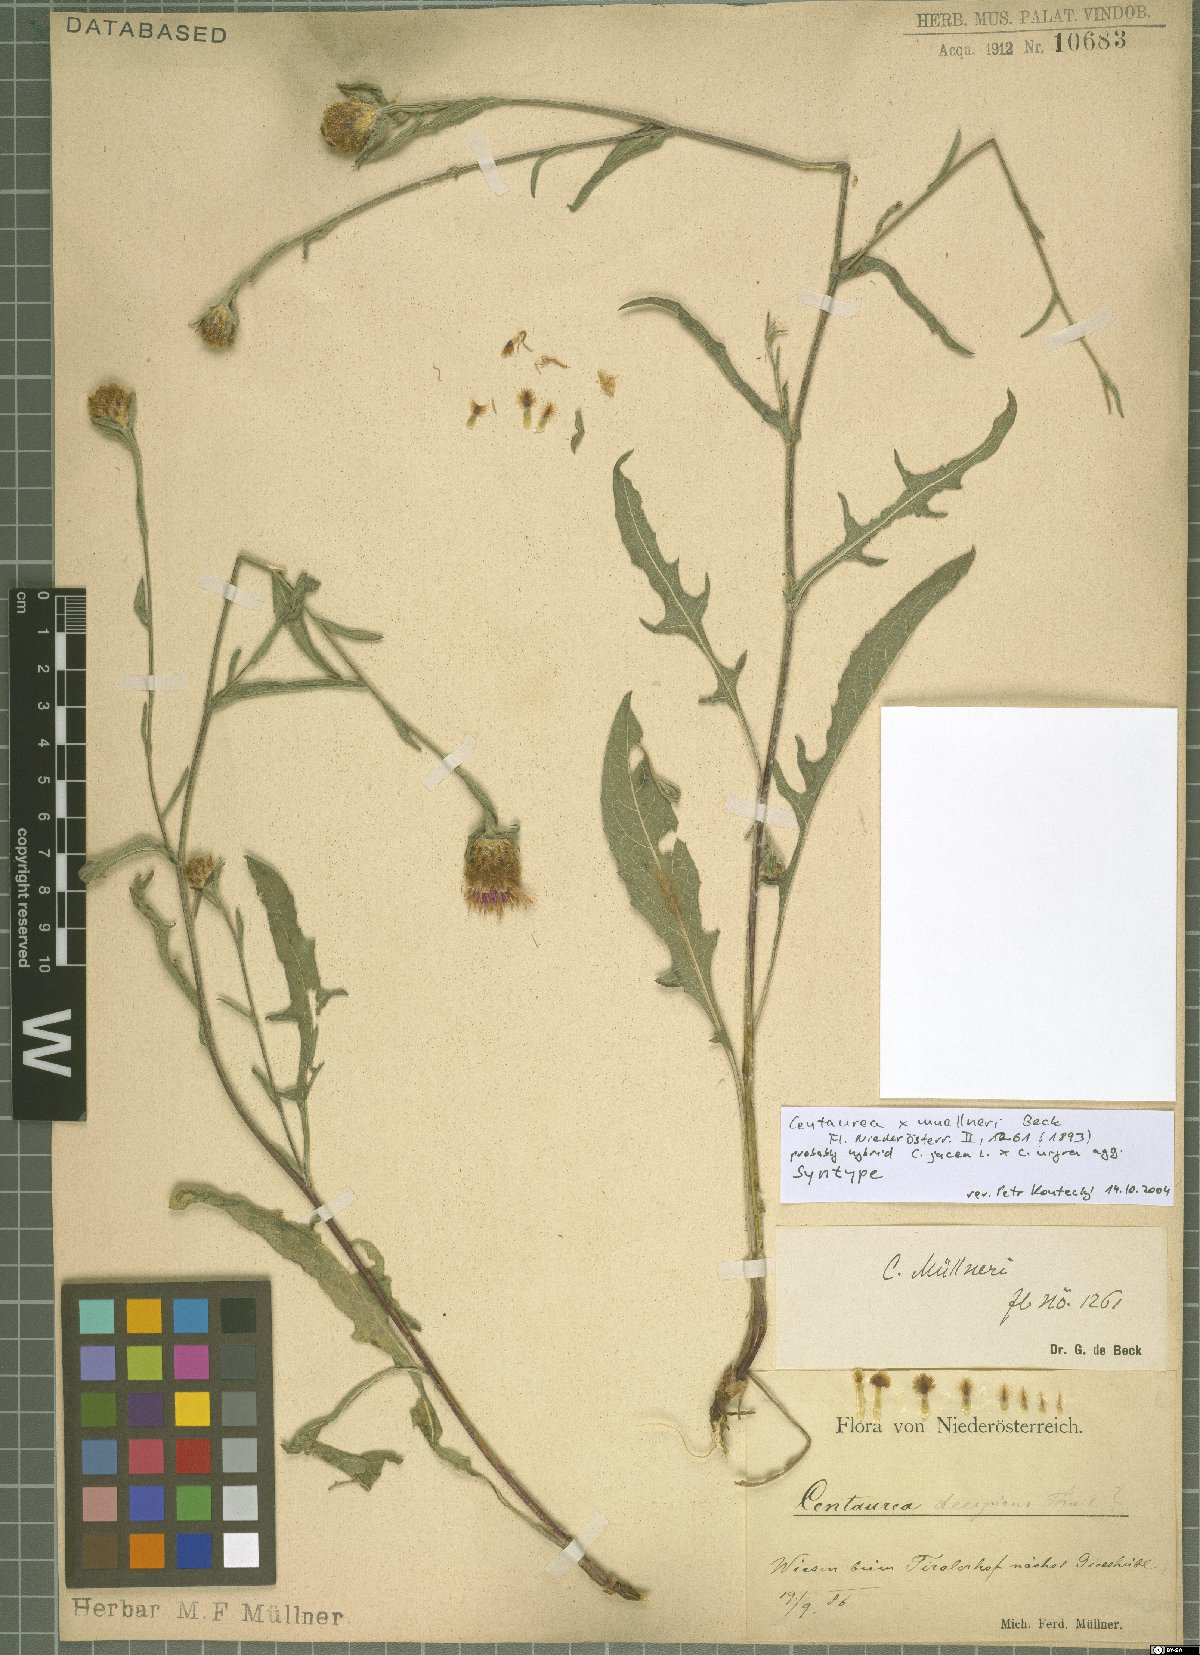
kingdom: Plantae
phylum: Tracheophyta
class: Magnoliopsida
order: Asterales
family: Asteraceae
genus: Centaurea
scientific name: Centaurea
